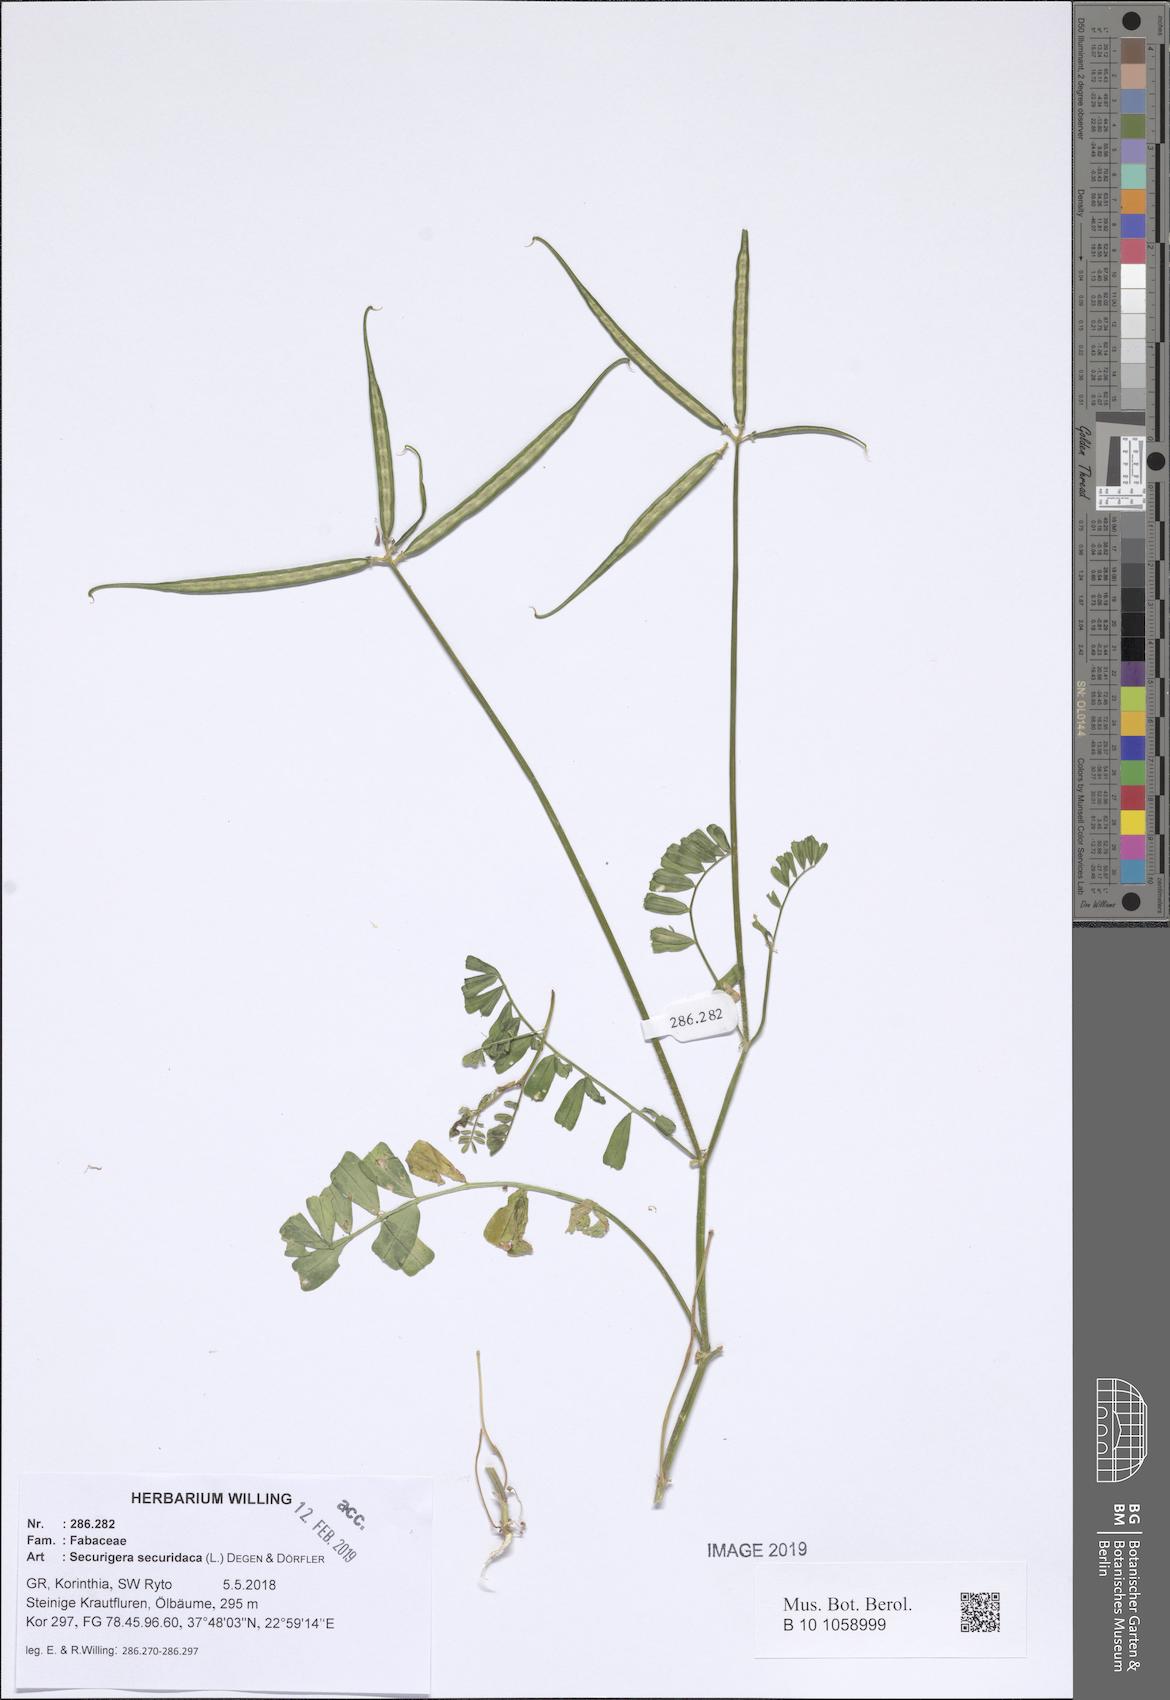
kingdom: Plantae
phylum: Tracheophyta
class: Magnoliopsida
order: Fabales
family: Fabaceae
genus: Coronilla
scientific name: Coronilla securidaca
